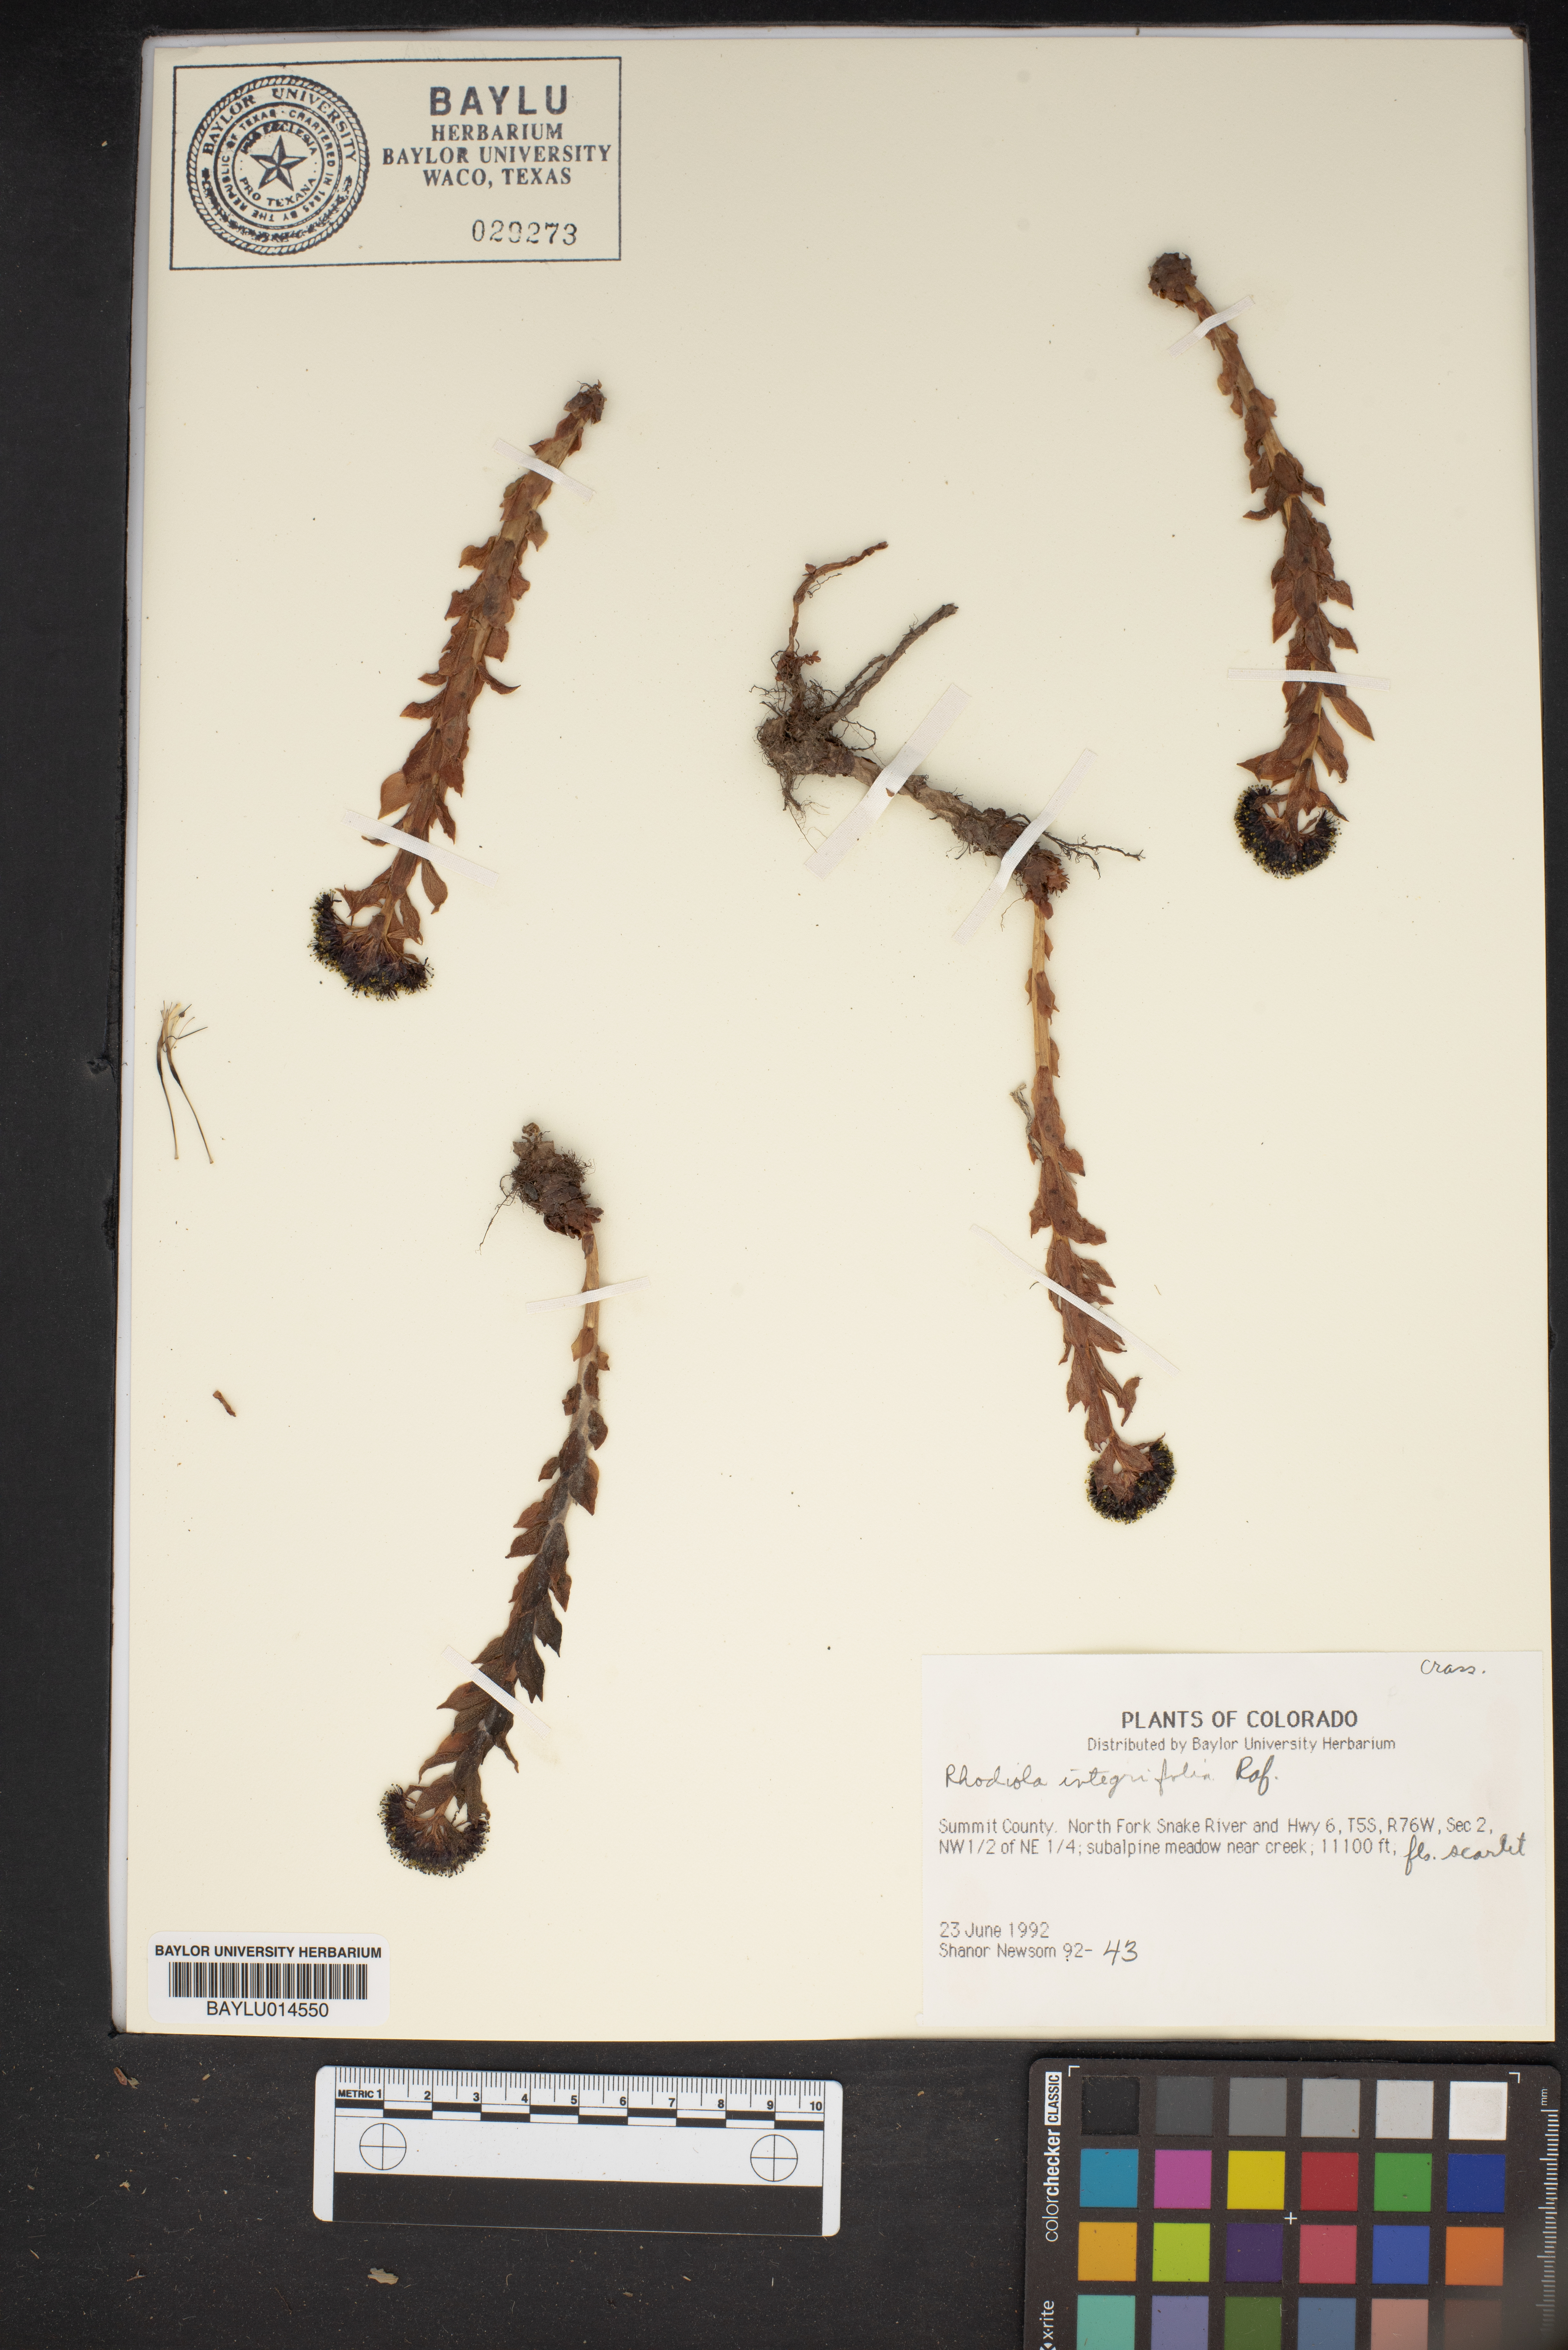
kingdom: Plantae
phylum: Tracheophyta
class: Magnoliopsida
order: Saxifragales
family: Crassulaceae
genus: Rhodiola
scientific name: Rhodiola integrifolia
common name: Western roseroot
